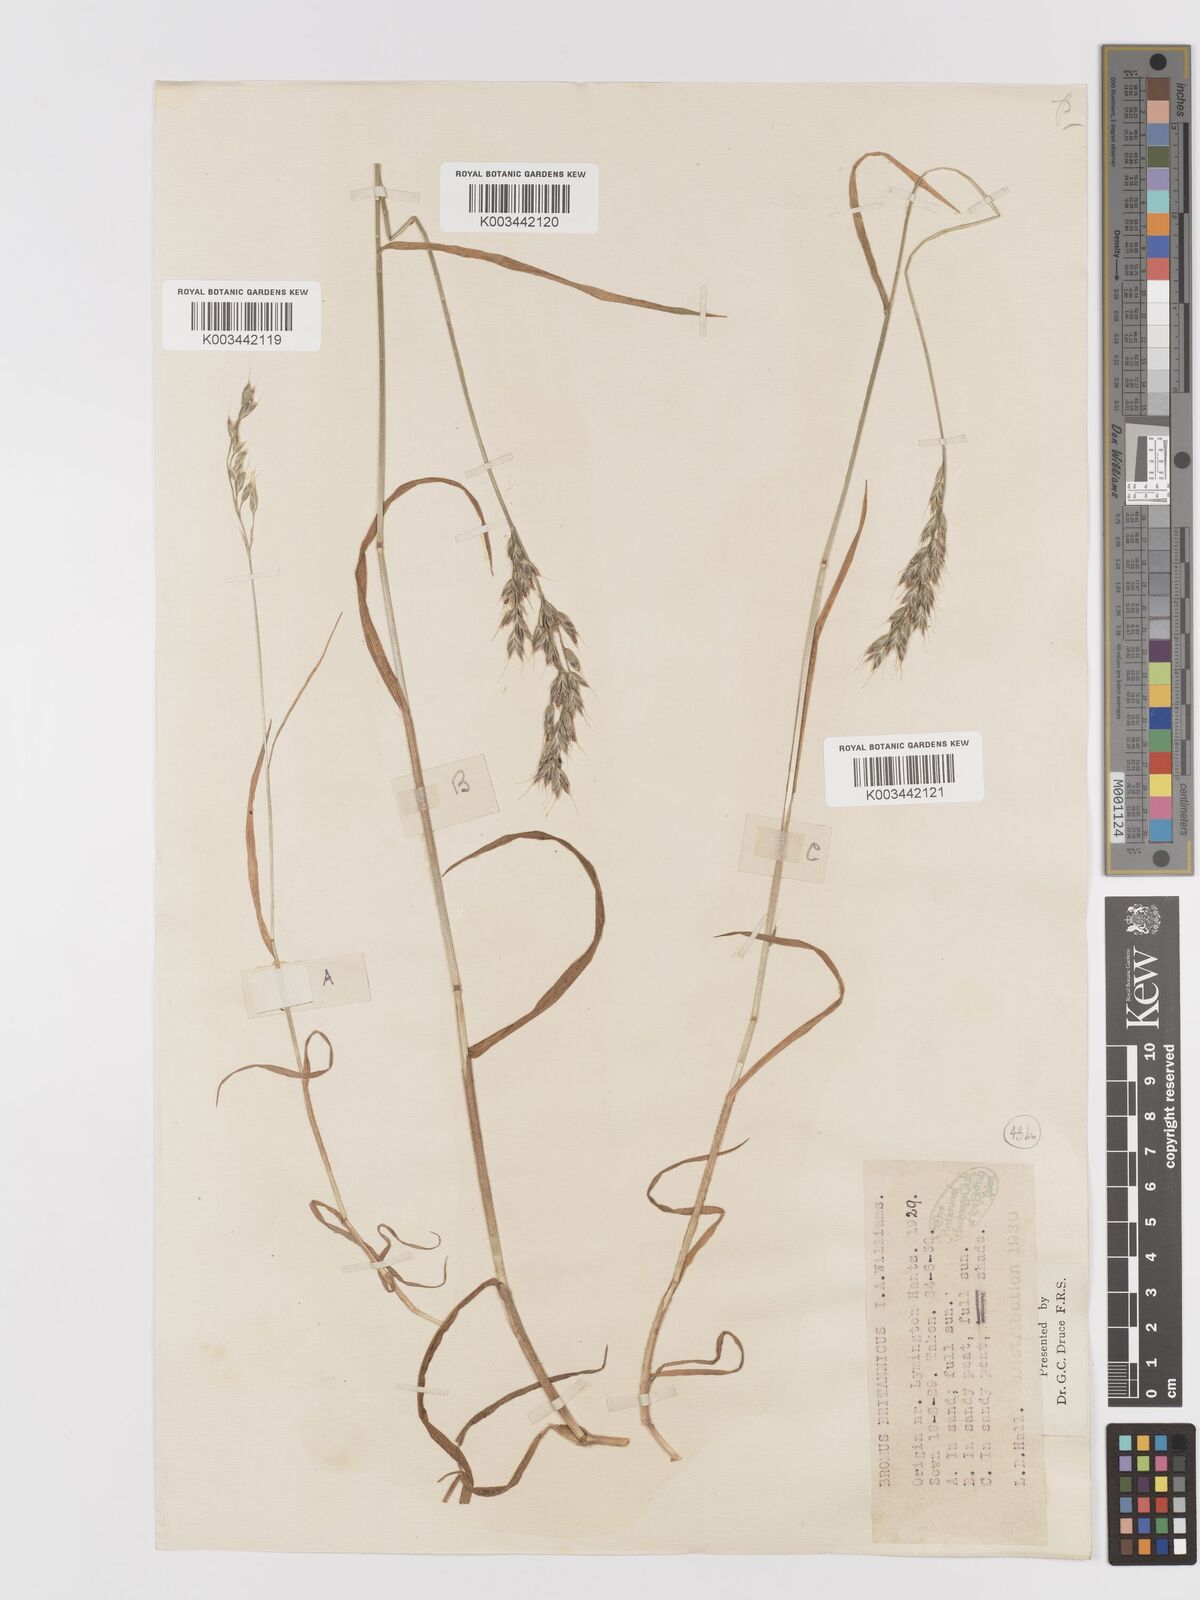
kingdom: Plantae
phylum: Tracheophyta
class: Liliopsida
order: Poales
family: Poaceae
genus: Bromus
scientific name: Bromus lepidus
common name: Slender soft-brome
